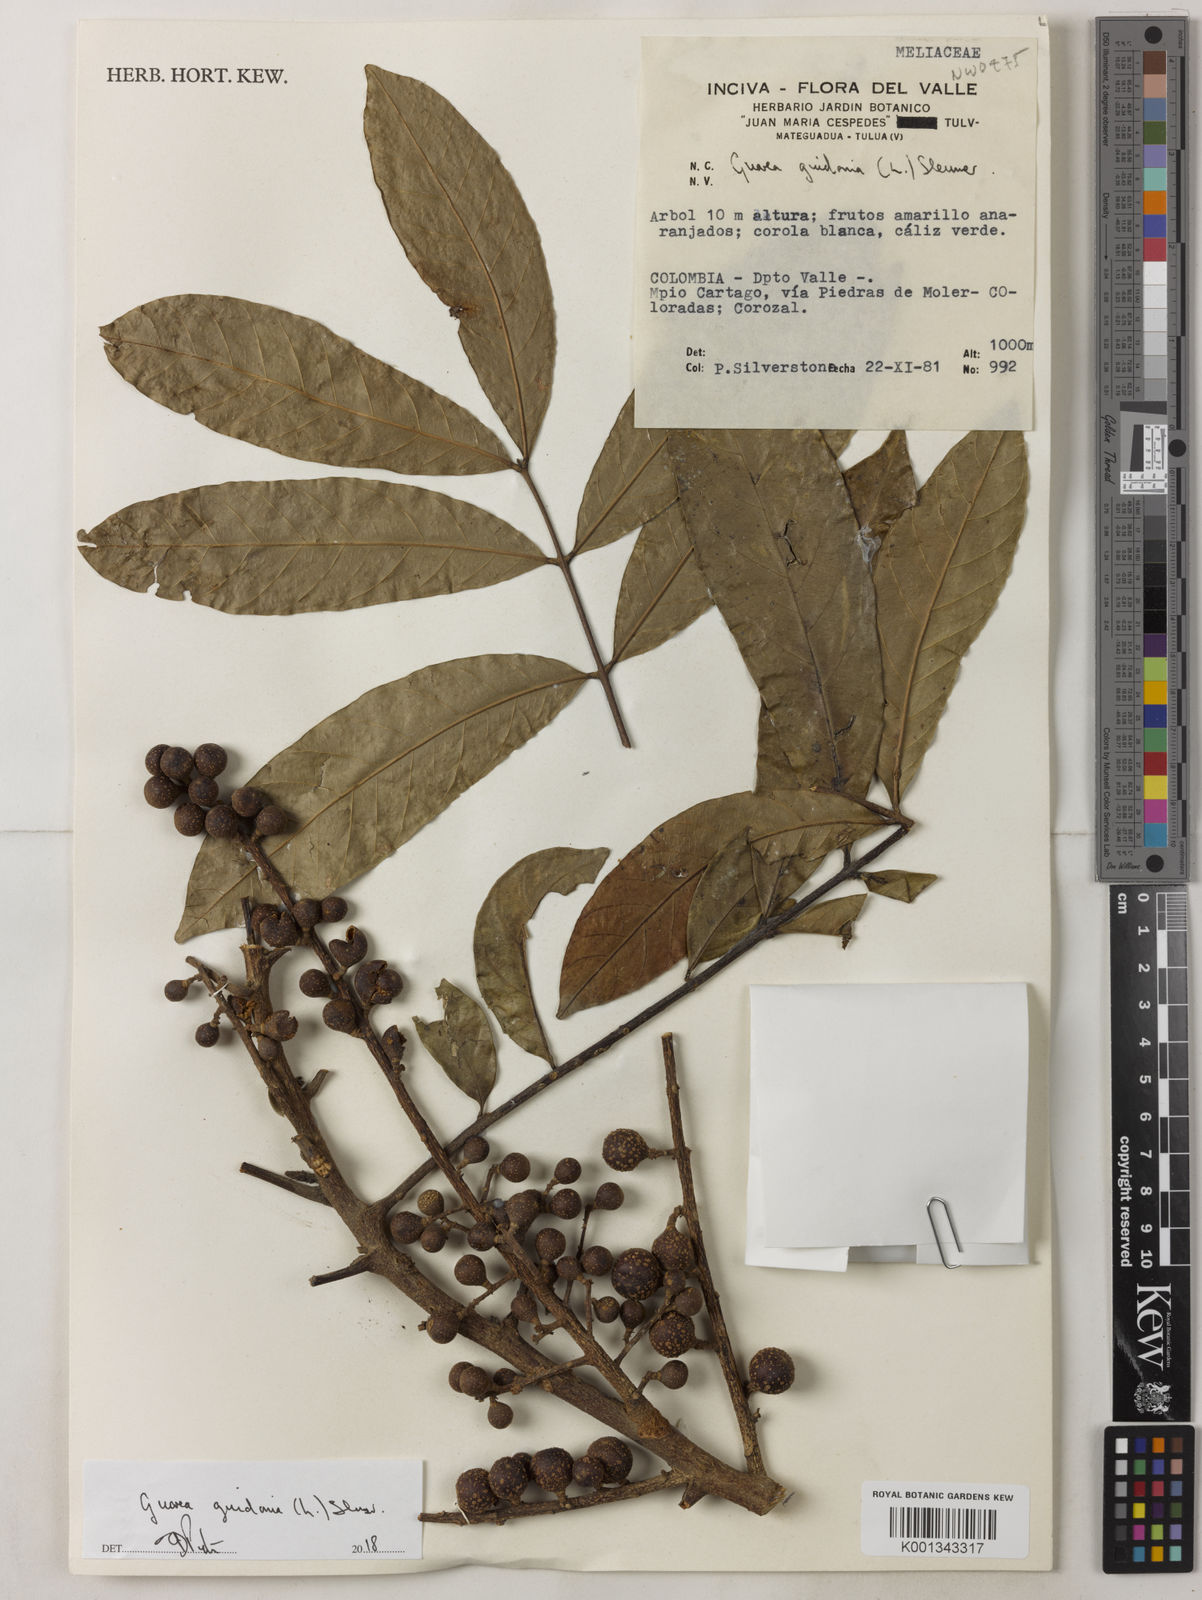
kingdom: Plantae
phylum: Tracheophyta
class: Magnoliopsida
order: Sapindales
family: Meliaceae
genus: Guarea
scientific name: Guarea guidonia
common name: American muskwood
